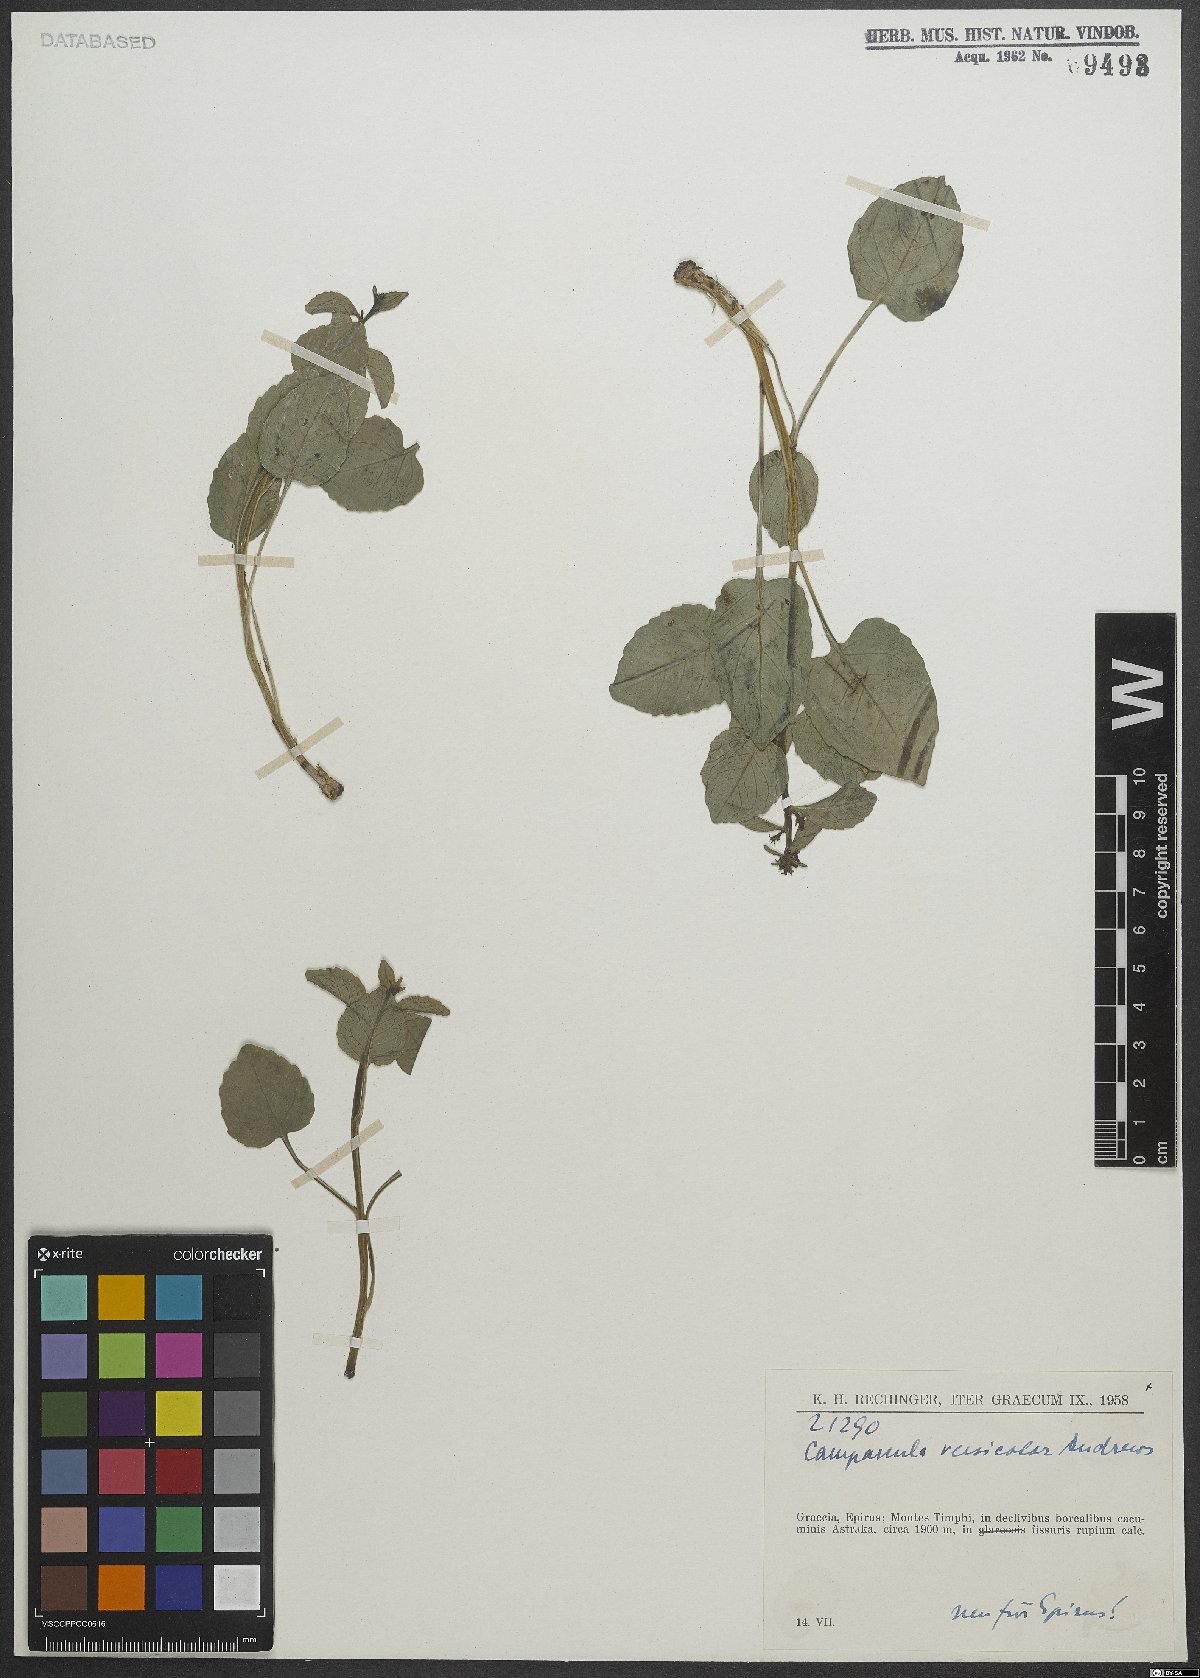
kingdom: Plantae
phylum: Tracheophyta
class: Magnoliopsida
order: Asterales
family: Campanulaceae
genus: Campanula
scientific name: Campanula versicolor
